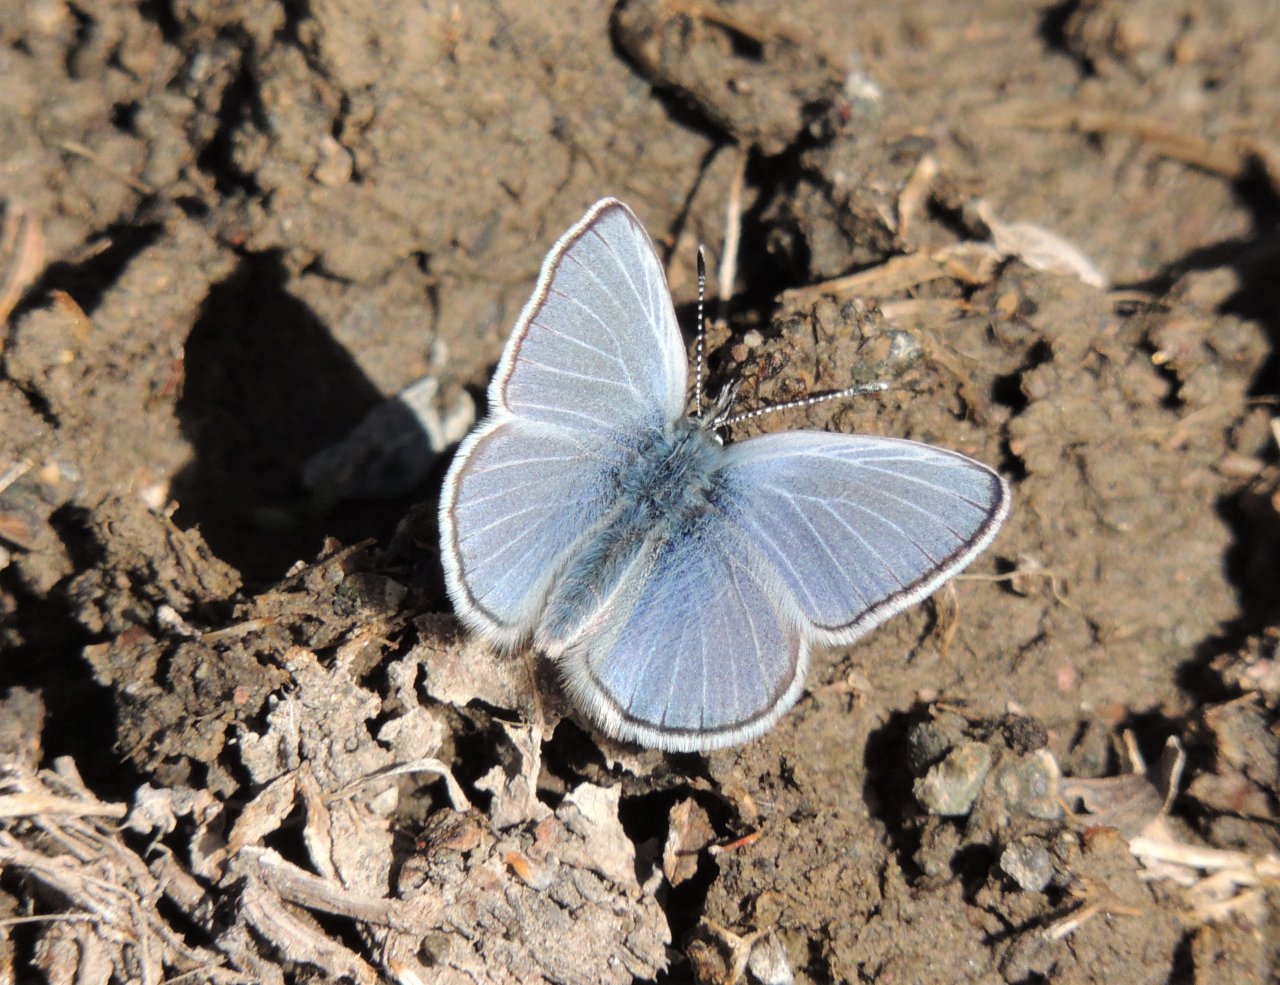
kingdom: Animalia
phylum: Arthropoda
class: Insecta
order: Lepidoptera
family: Lycaenidae
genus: Glaucopsyche
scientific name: Glaucopsyche lygdamus
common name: Silvery Blue
